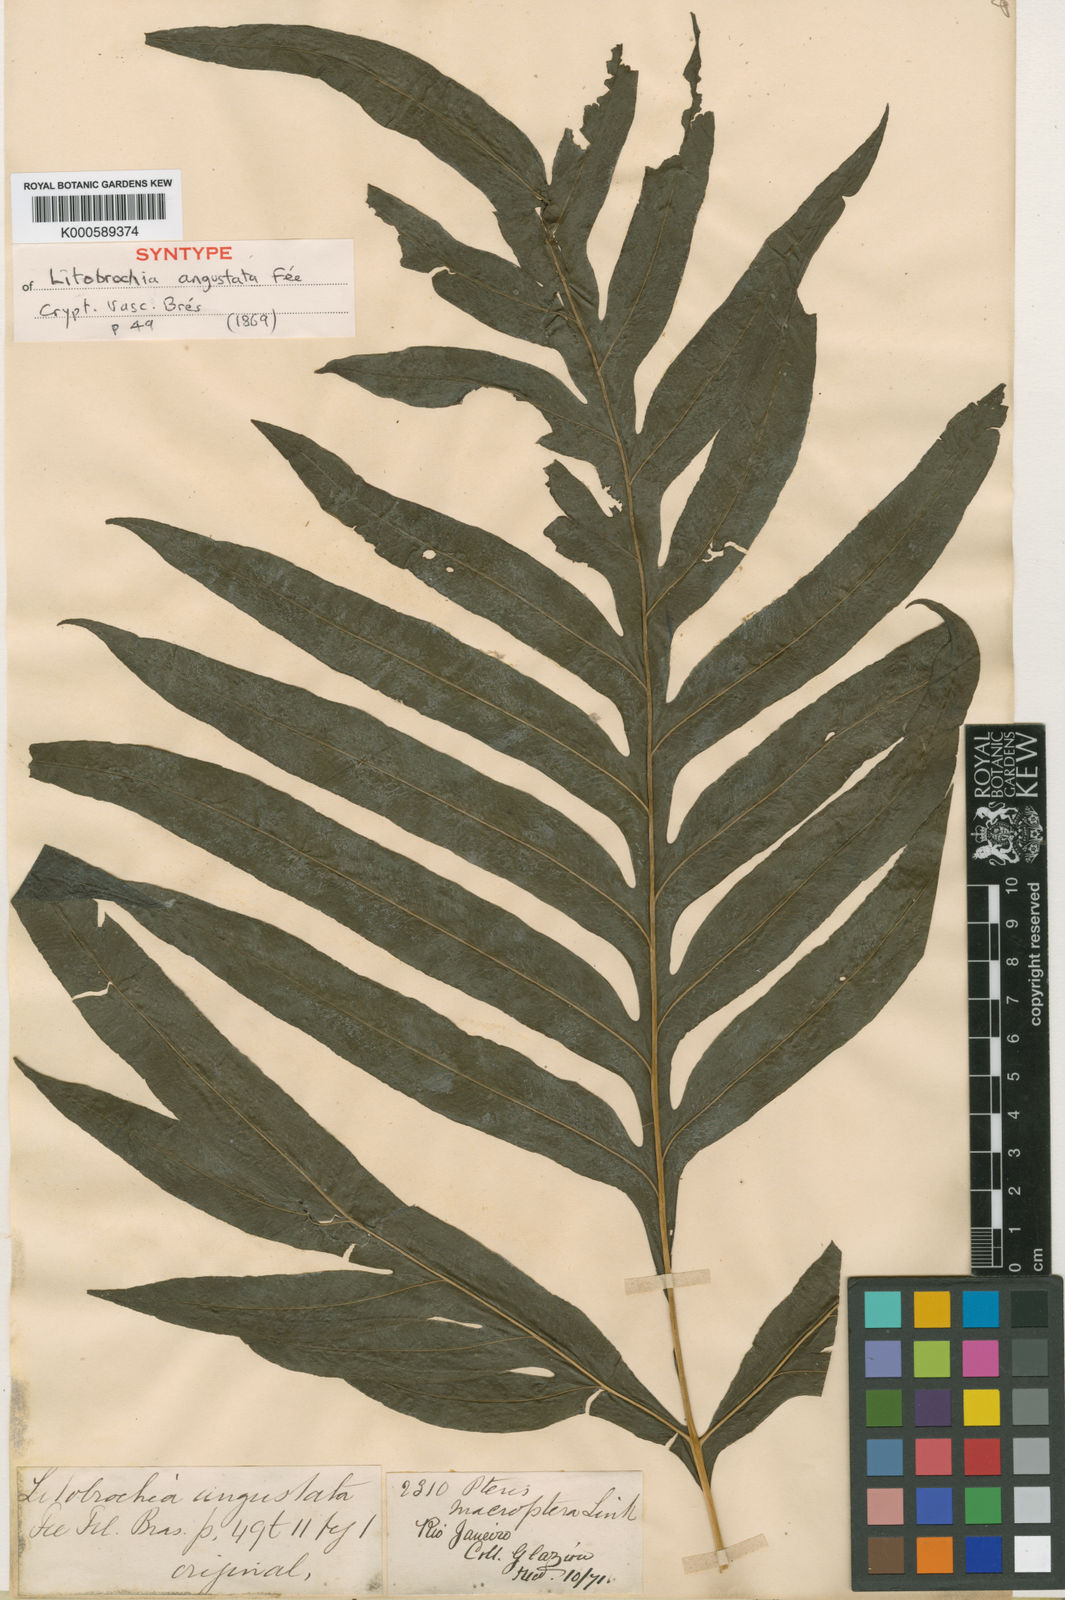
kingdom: Plantae
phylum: Tracheophyta
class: Polypodiopsida
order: Polypodiales
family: Pteridaceae
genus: Pteris
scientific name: Pteris altissima
